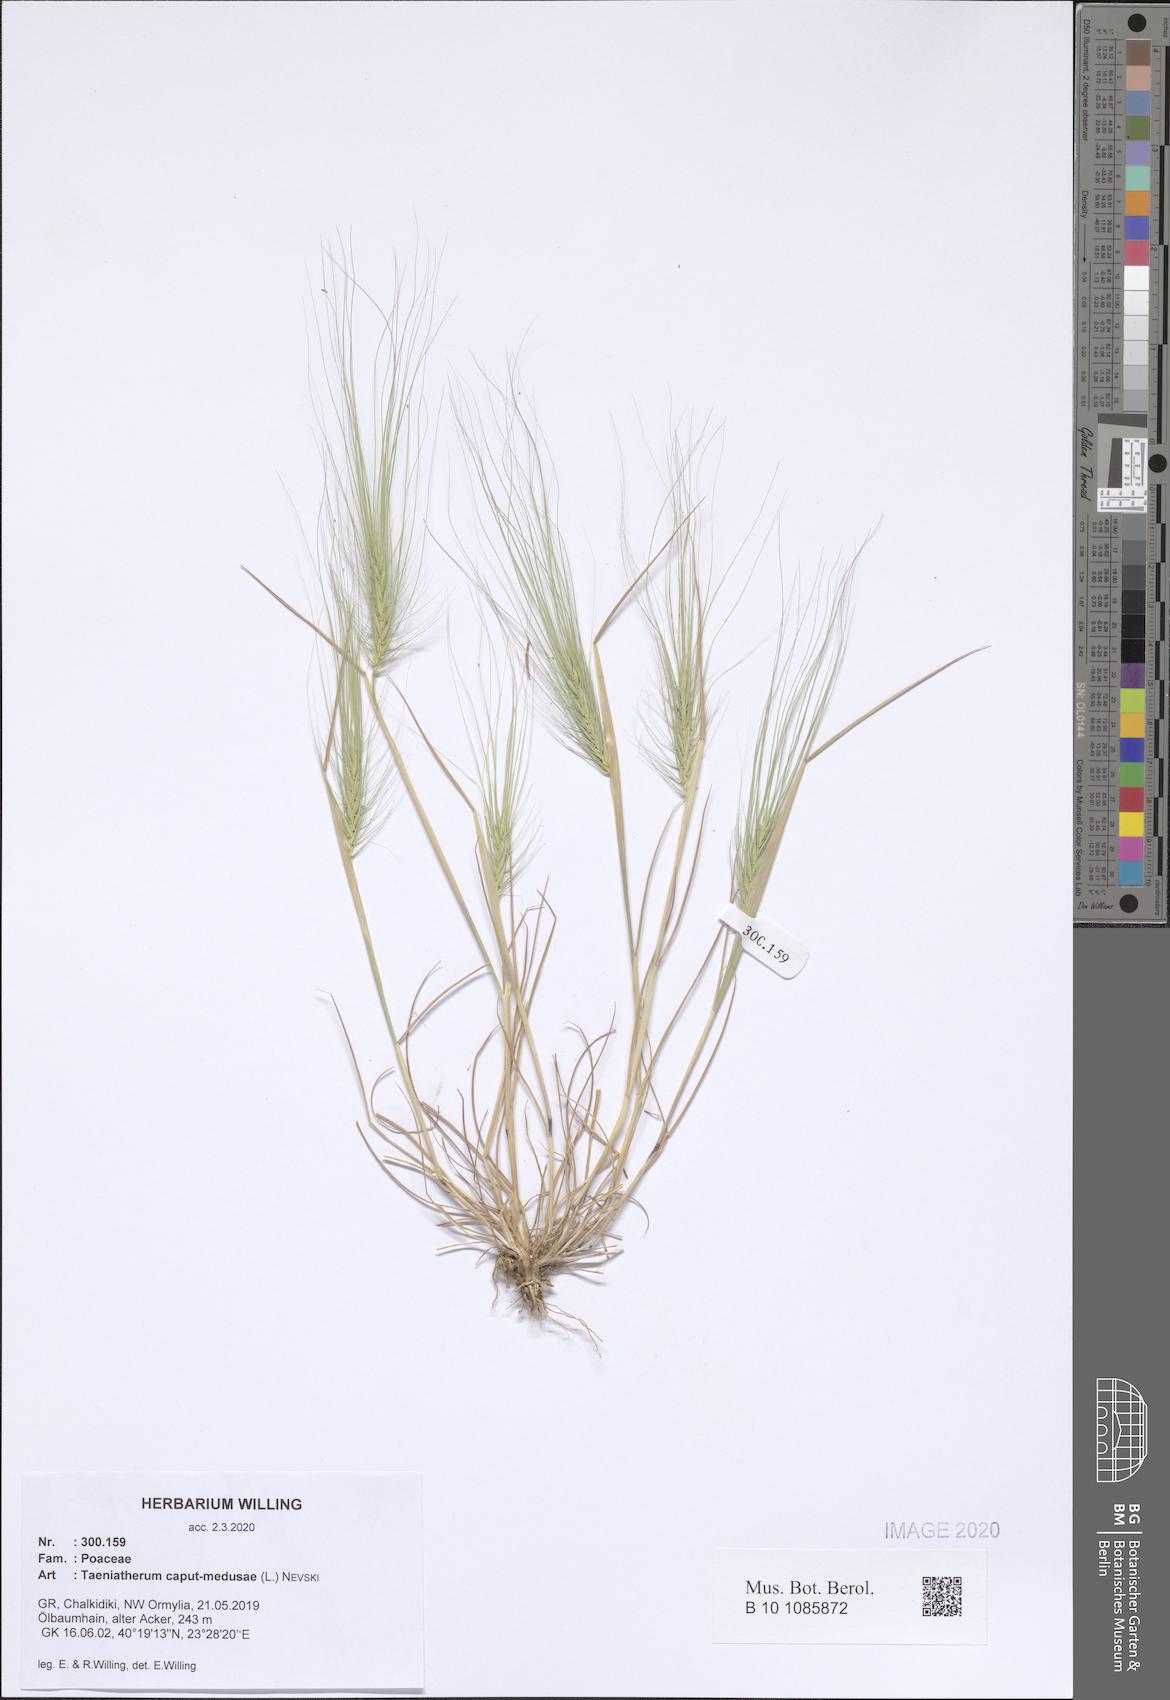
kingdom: Plantae
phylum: Tracheophyta
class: Liliopsida
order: Poales
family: Poaceae
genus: Taeniatherum
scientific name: Taeniatherum caput-medusae
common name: Medusahead
